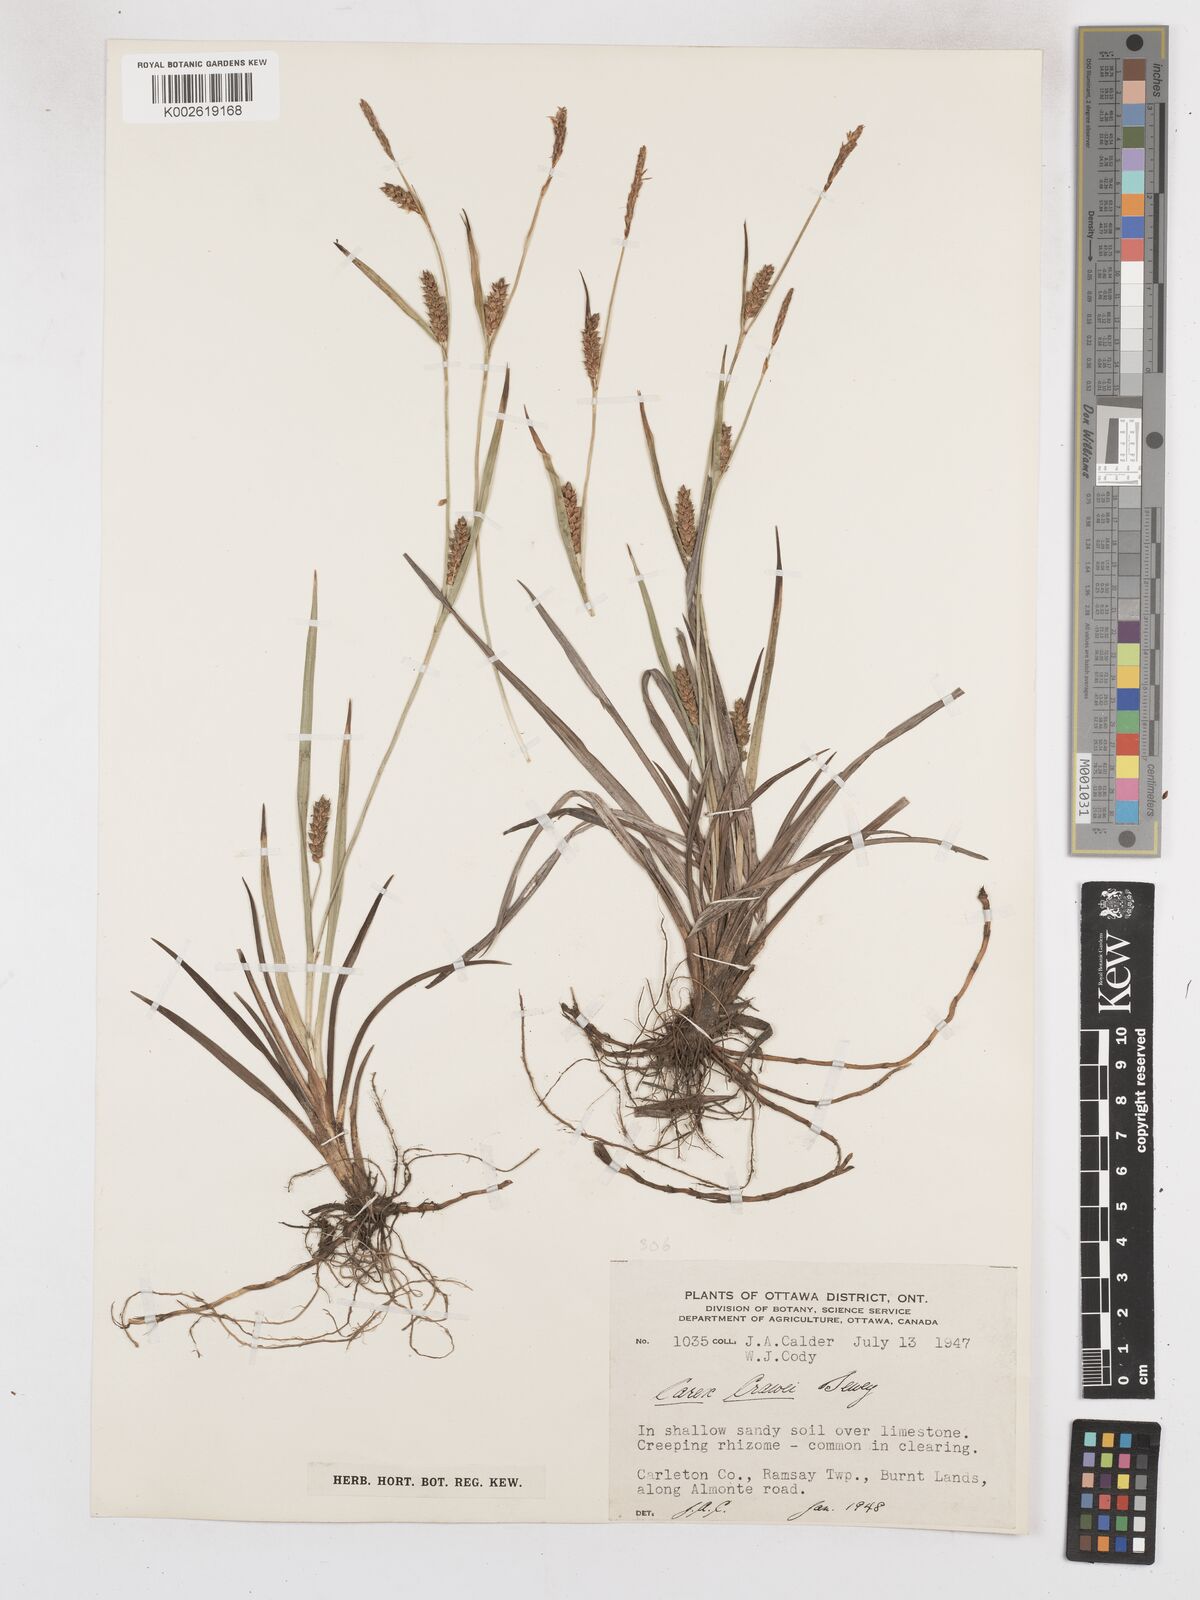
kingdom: Plantae
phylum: Tracheophyta
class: Liliopsida
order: Poales
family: Cyperaceae
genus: Carex
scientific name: Carex crawei
